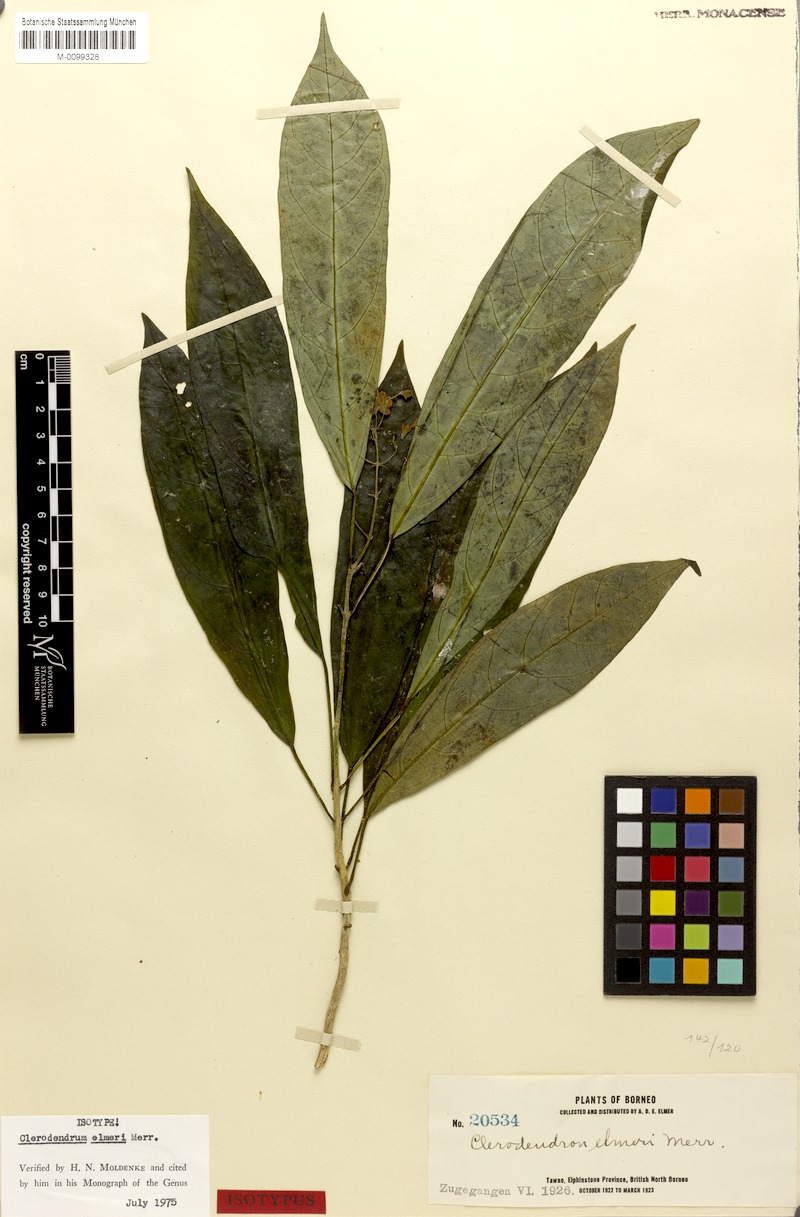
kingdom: Plantae
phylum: Tracheophyta
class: Magnoliopsida
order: Lamiales
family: Lamiaceae
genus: Clerodendrum
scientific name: Clerodendrum phyllomega
